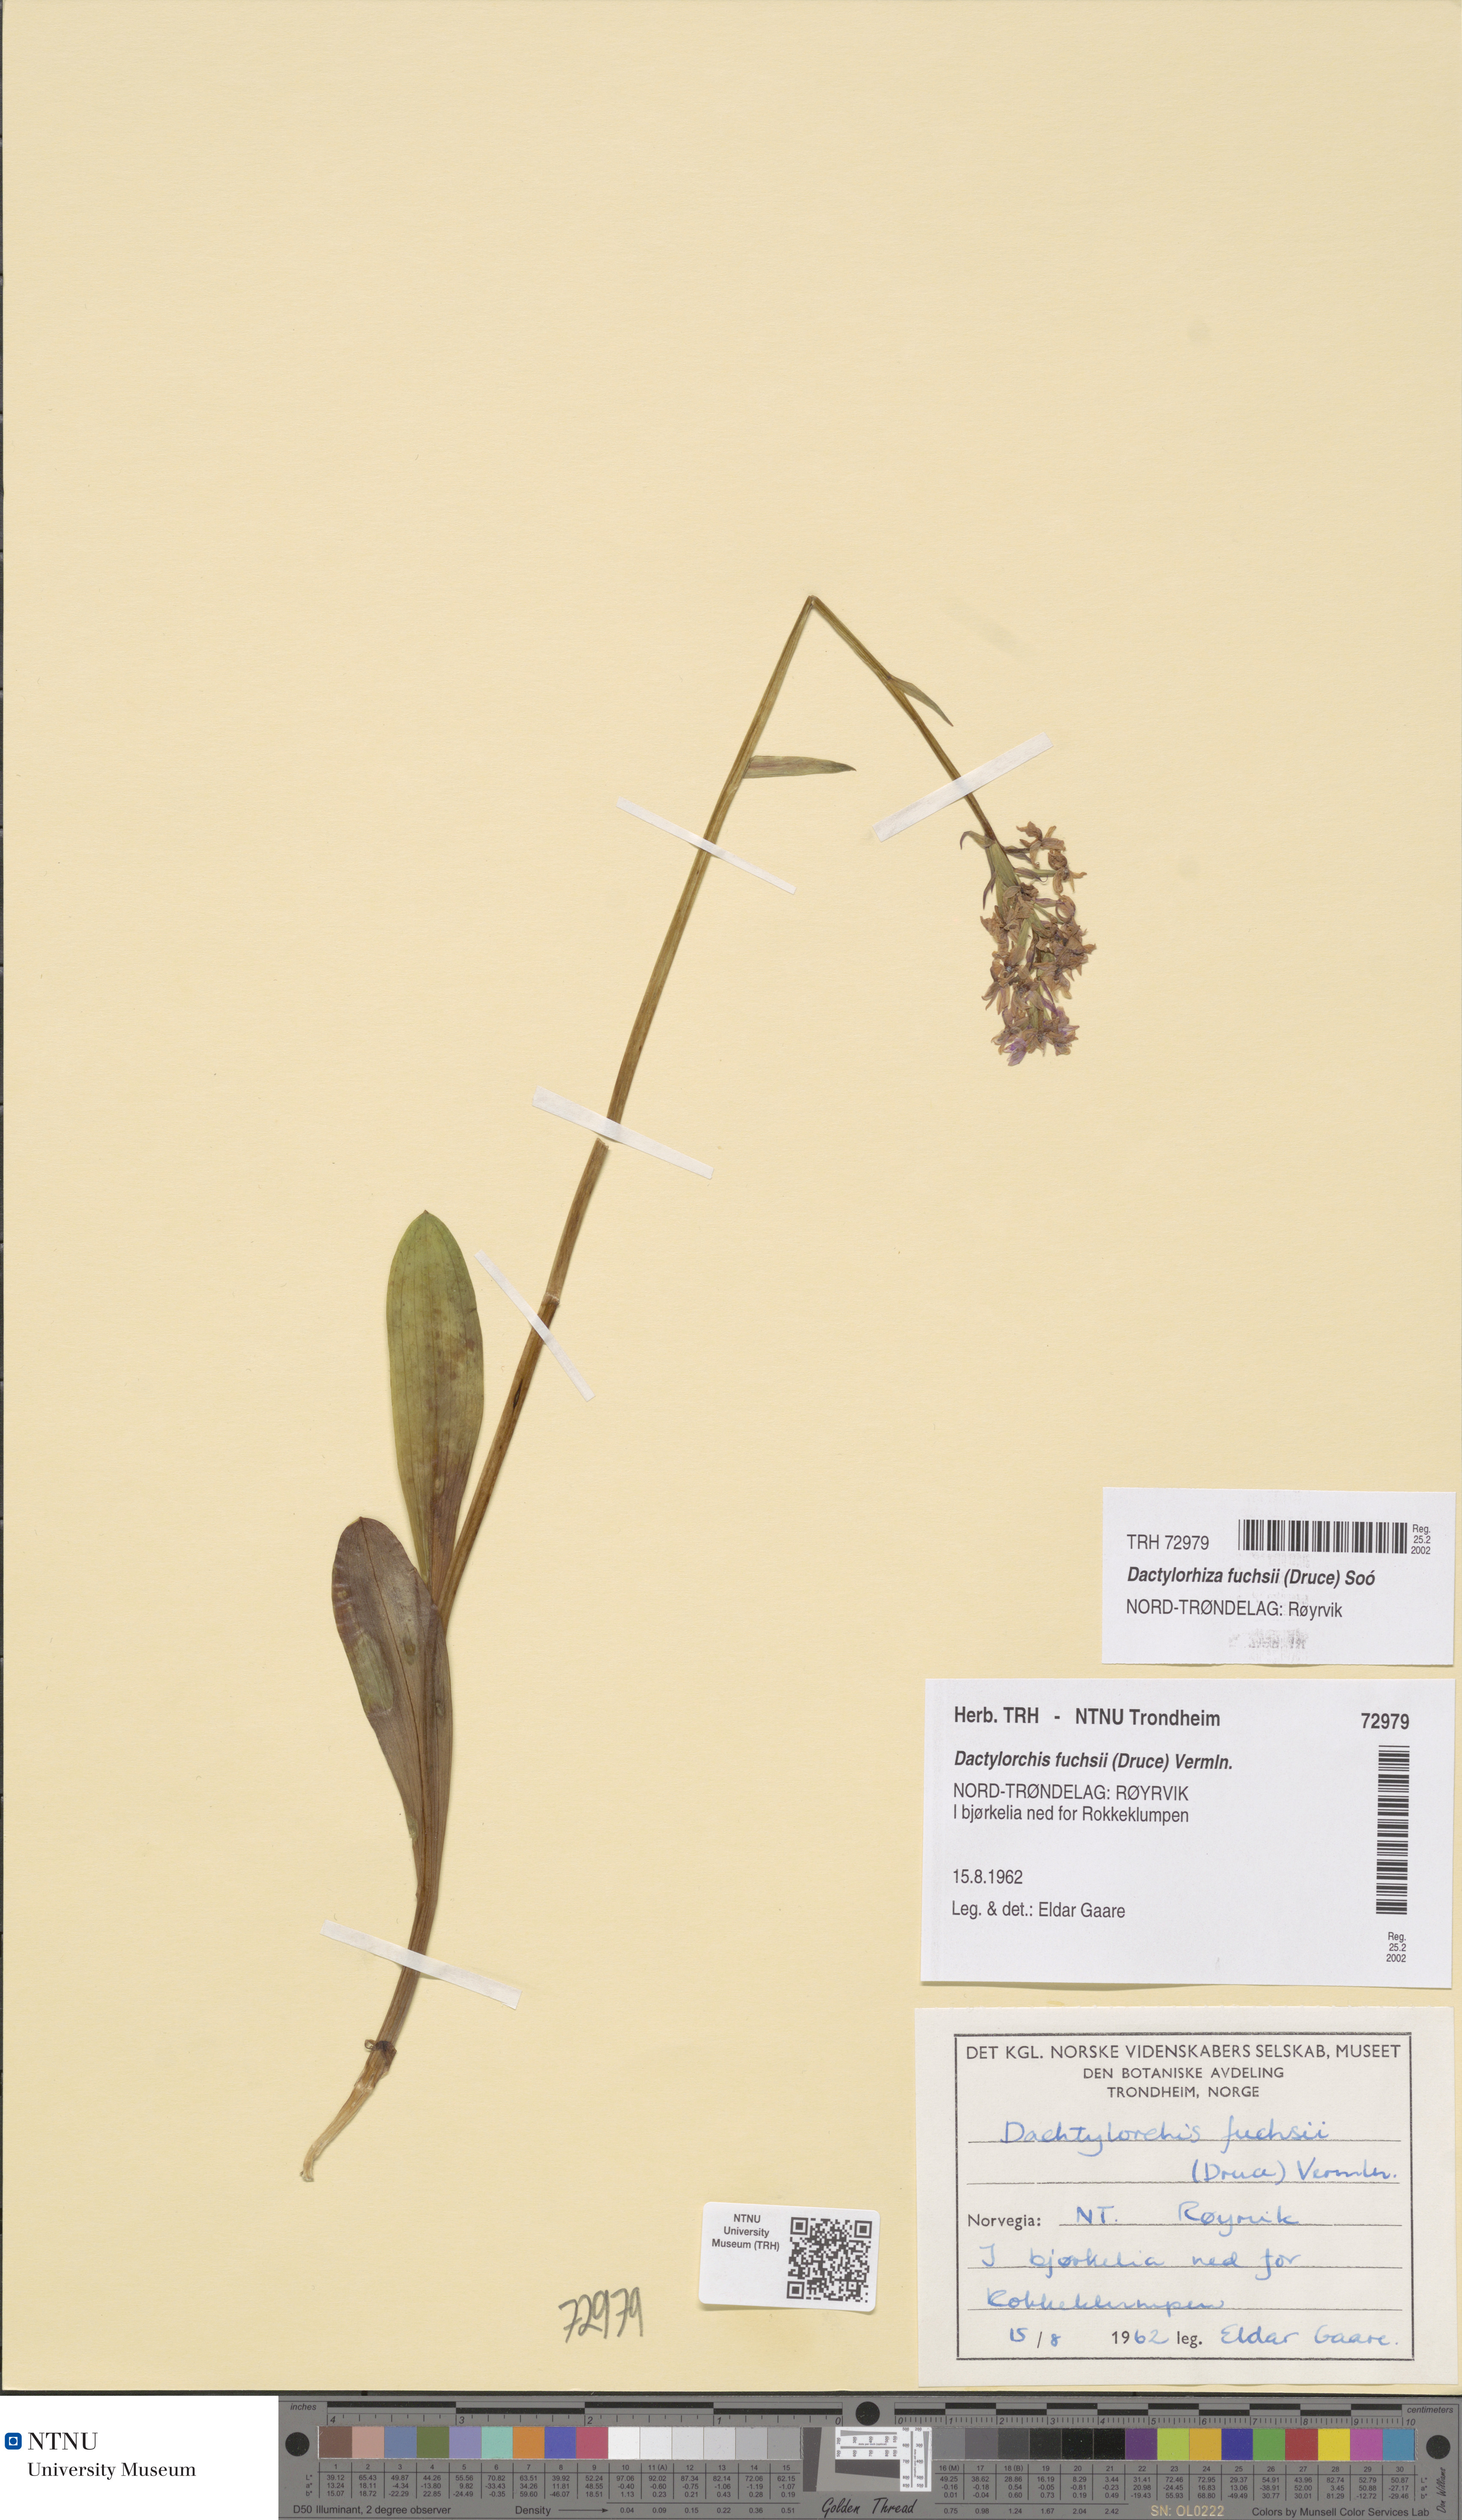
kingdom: Plantae
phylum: Tracheophyta
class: Liliopsida
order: Asparagales
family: Orchidaceae
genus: Dactylorhiza
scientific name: Dactylorhiza maculata
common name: Heath spotted-orchid
